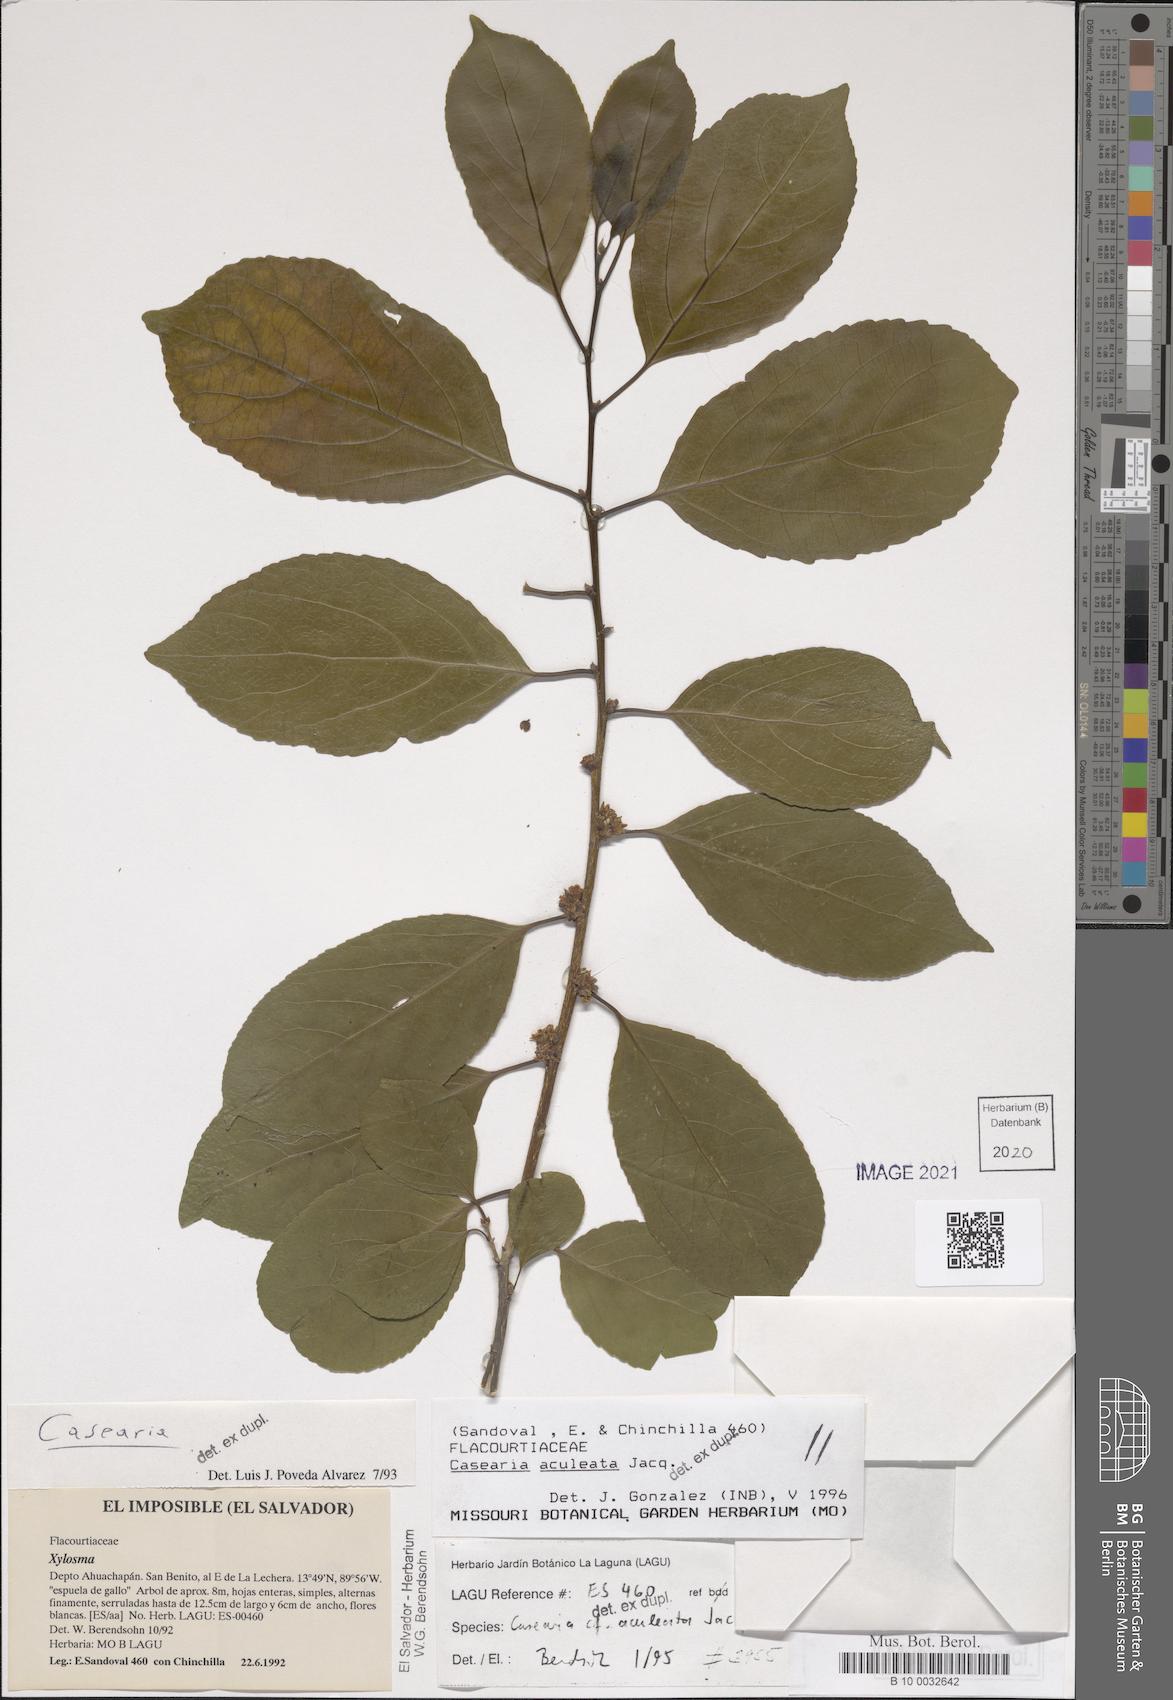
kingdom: Plantae
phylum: Tracheophyta
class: Magnoliopsida
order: Malpighiales
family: Salicaceae
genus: Casearia
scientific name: Casearia aculeata
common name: Cockspur
